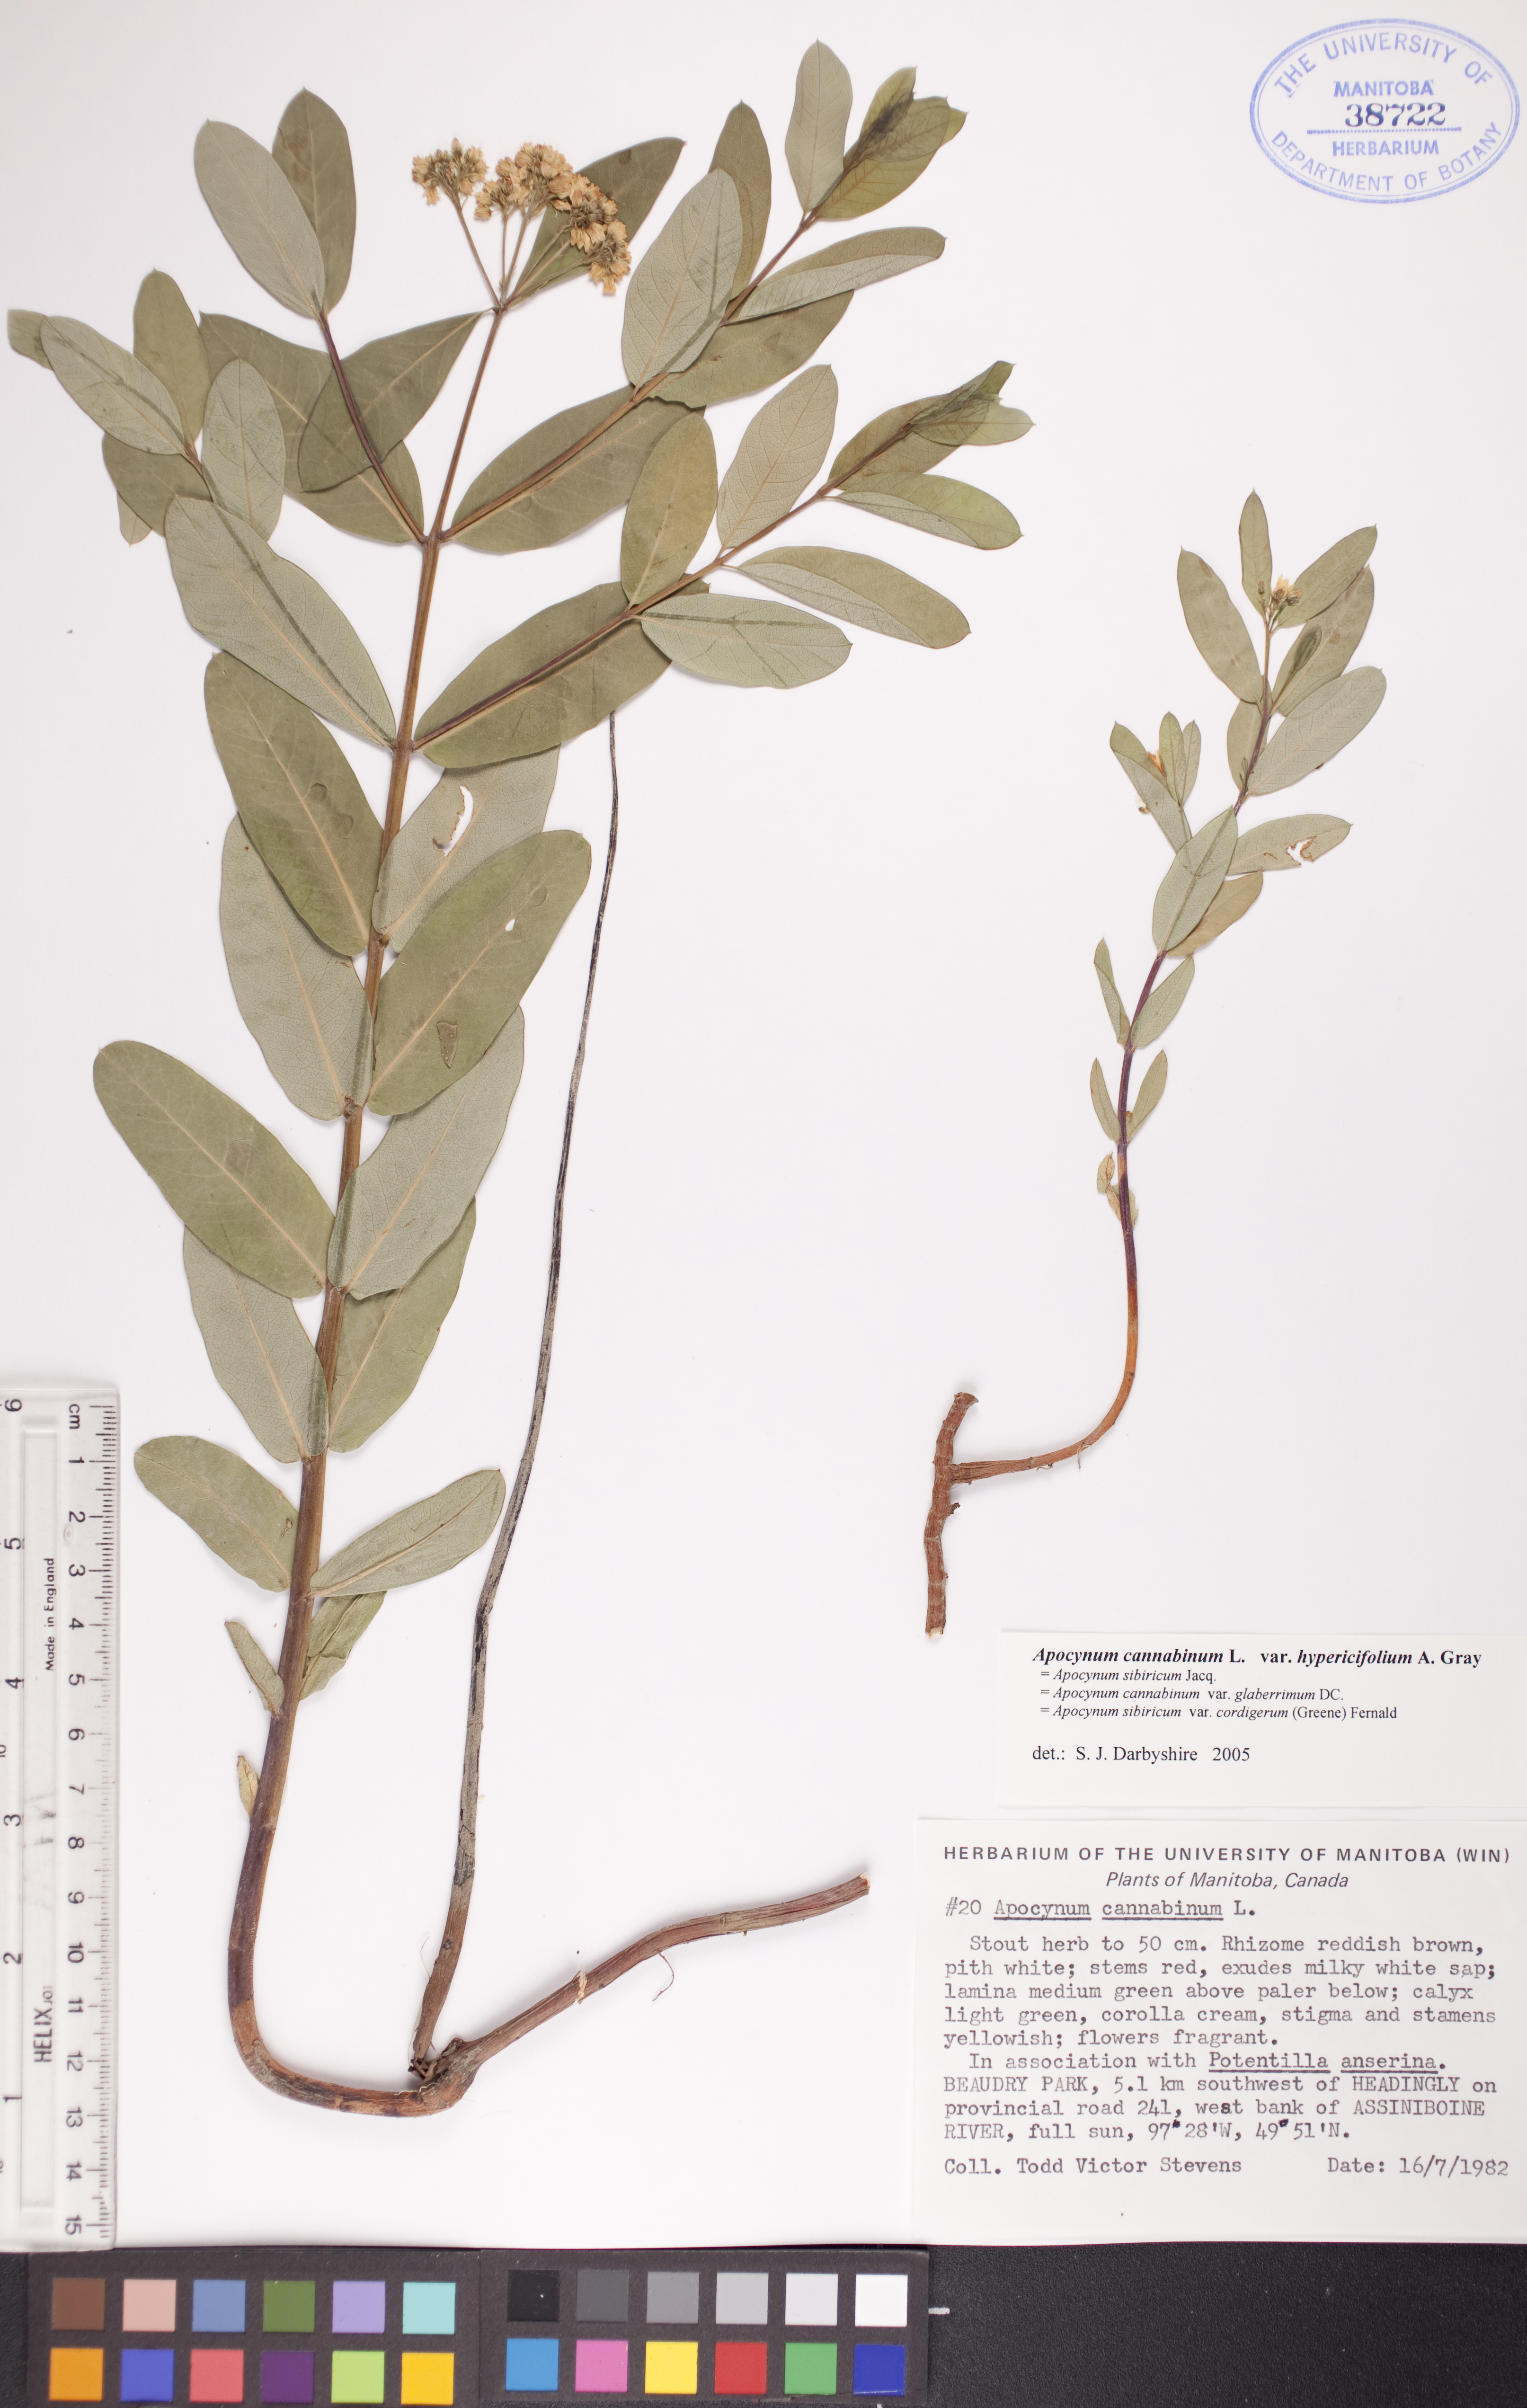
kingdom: Plantae
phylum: Tracheophyta
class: Magnoliopsida
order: Gentianales
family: Apocynaceae
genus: Apocynum
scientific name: Apocynum cannabinum
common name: Hemp dogbane
